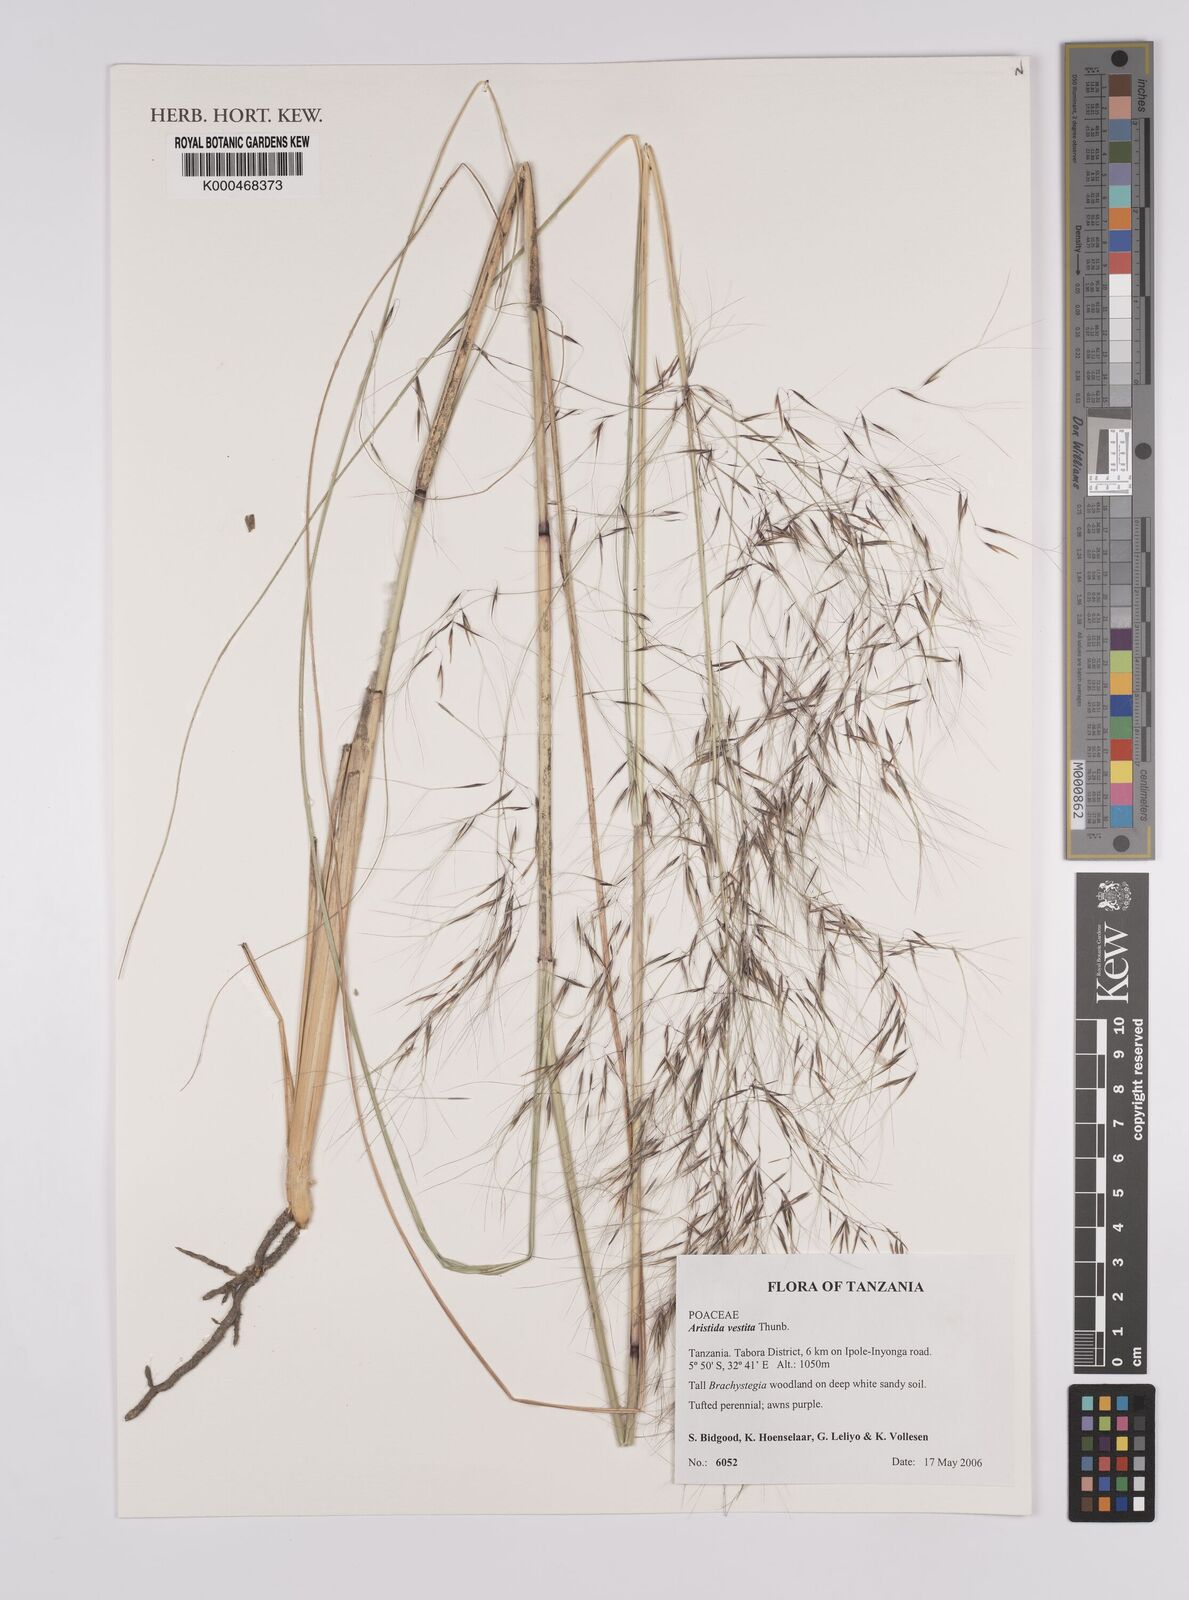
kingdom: Plantae
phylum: Tracheophyta
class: Liliopsida
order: Poales
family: Poaceae
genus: Aristida
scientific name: Aristida vestita
